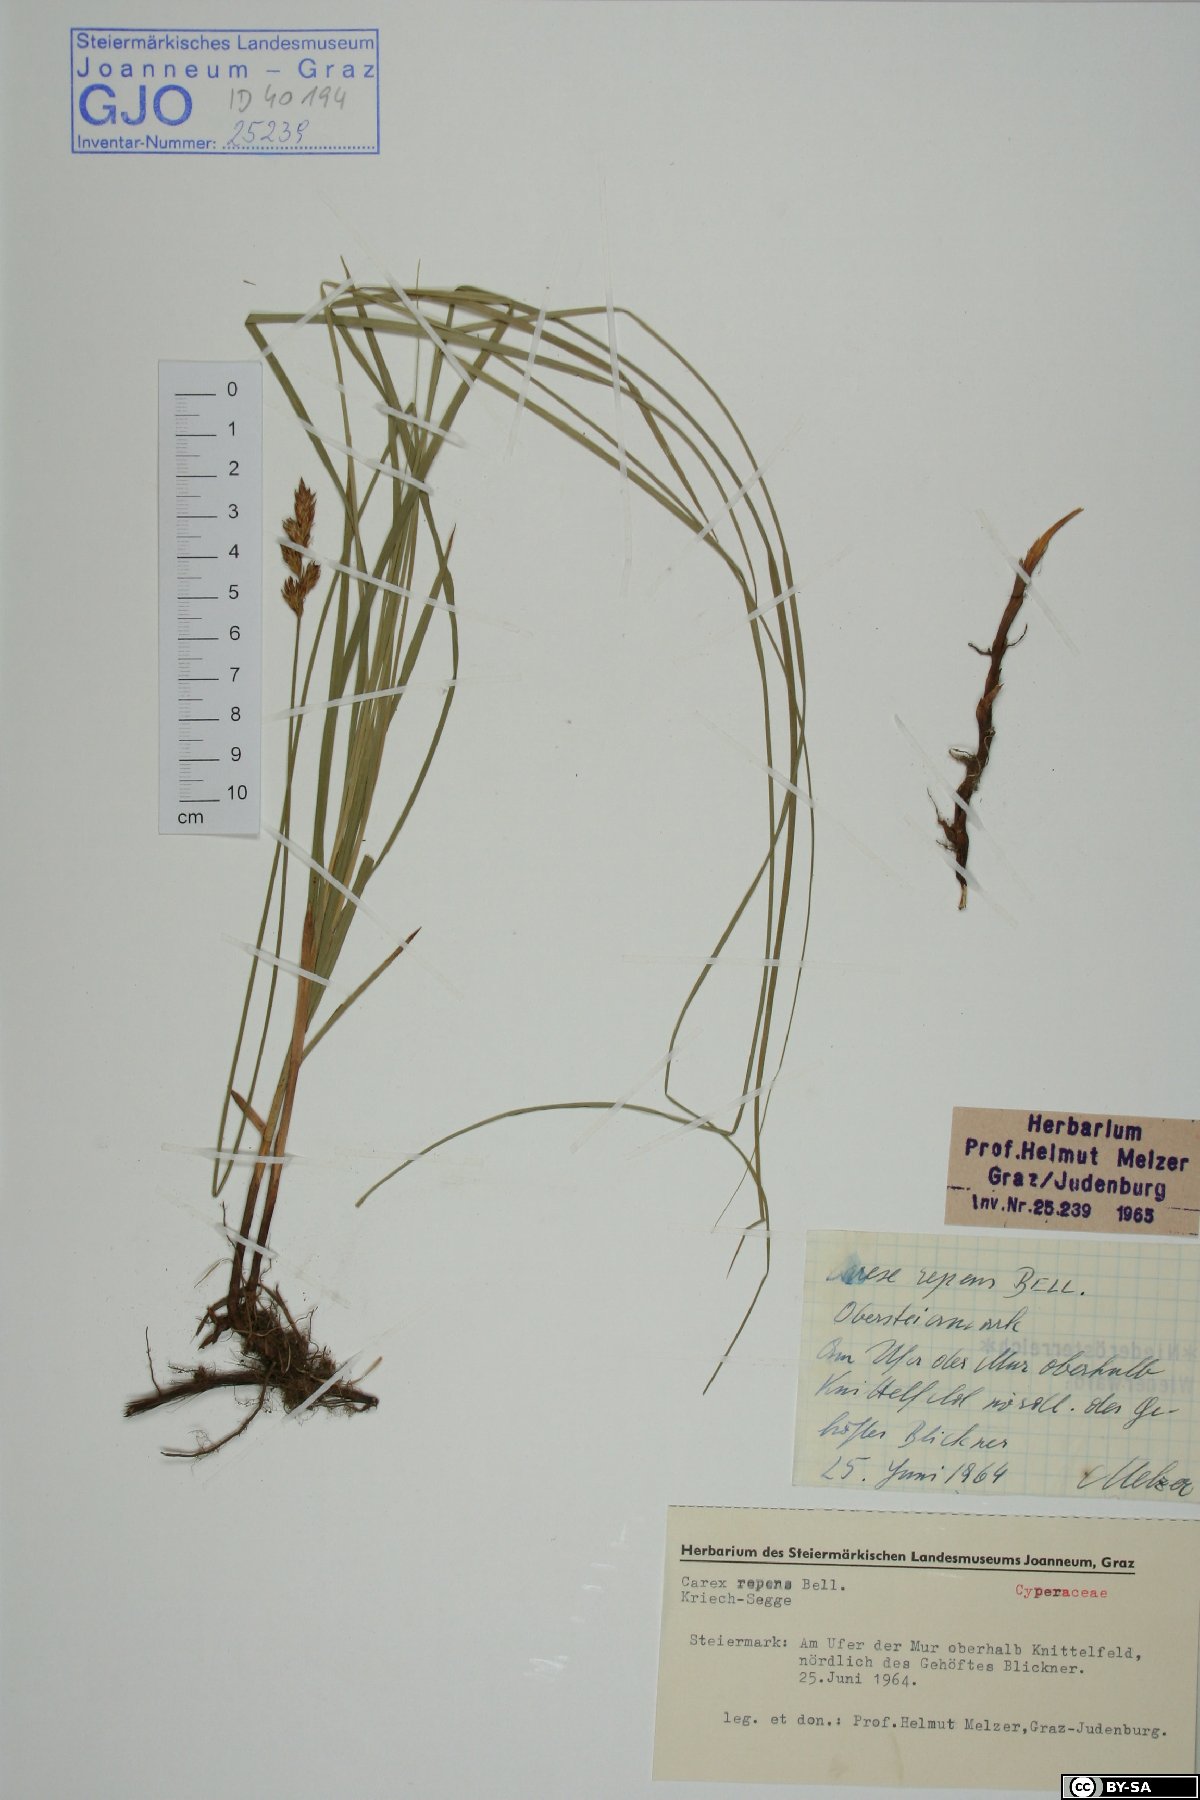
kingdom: Plantae
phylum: Tracheophyta
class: Liliopsida
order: Poales
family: Cyperaceae
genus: Carex
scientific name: Carex repens
